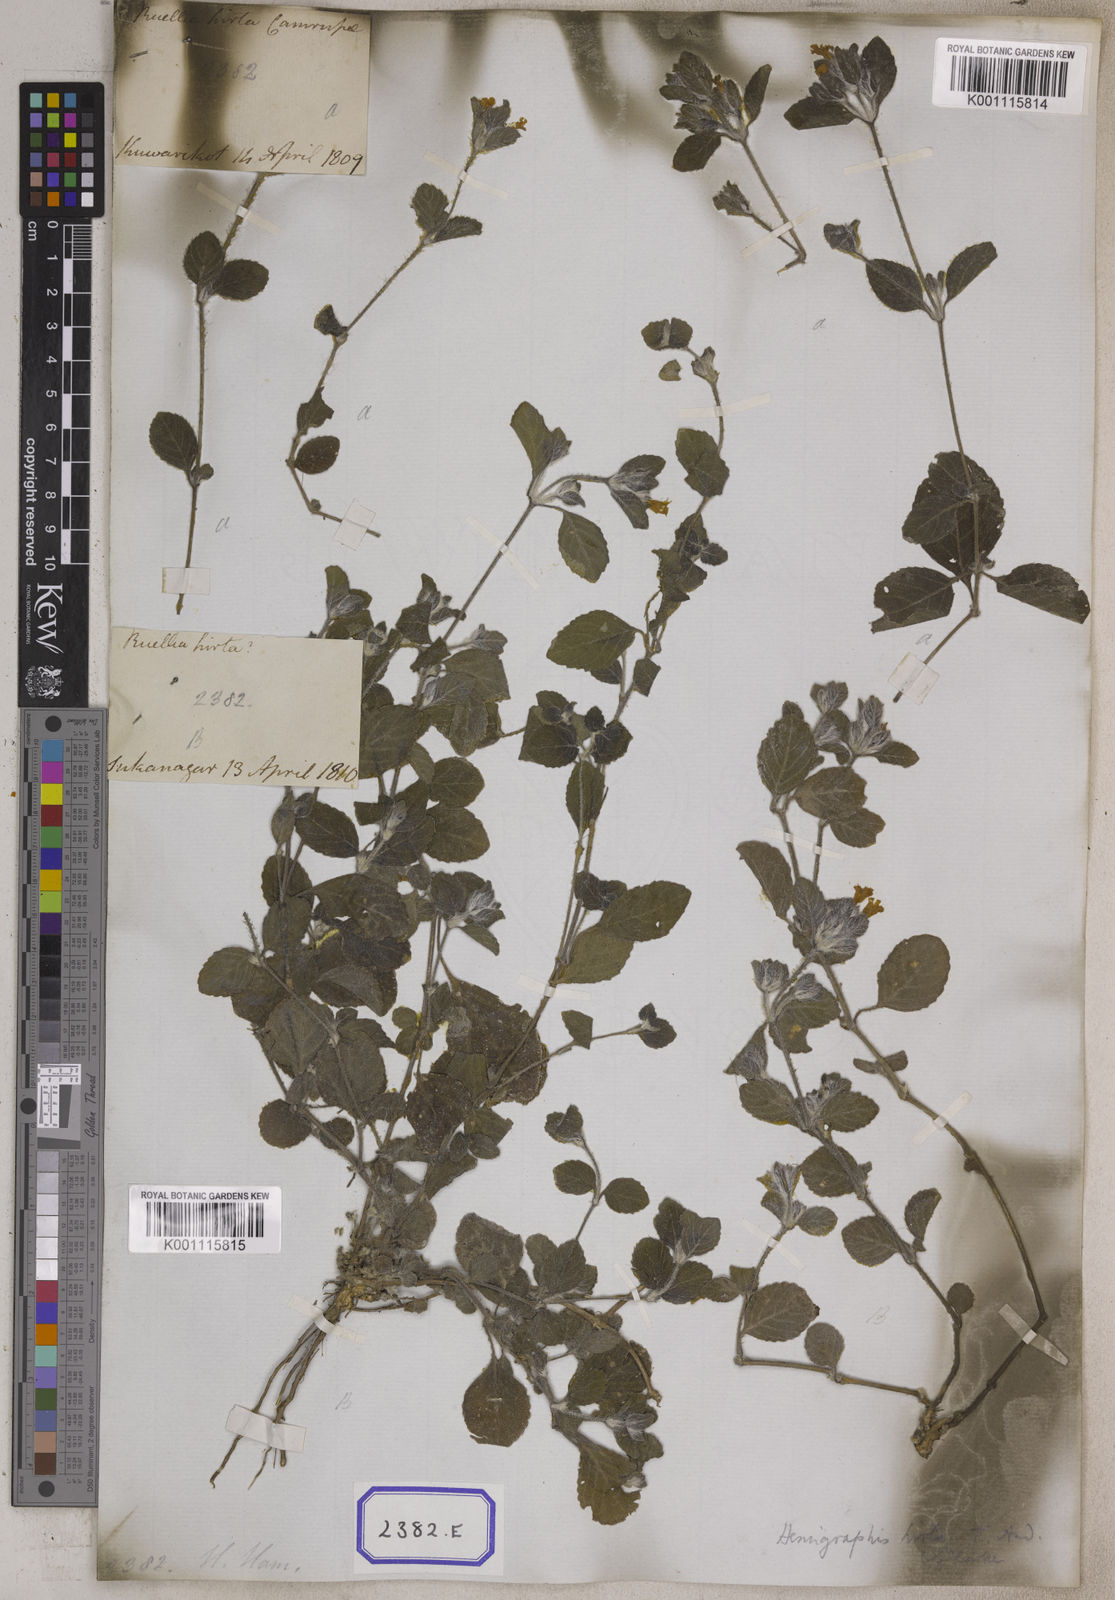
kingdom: Plantae
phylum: Tracheophyta
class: Magnoliopsida
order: Lamiales
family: Acanthaceae
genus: Strobilanthes
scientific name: Strobilanthes hirta
